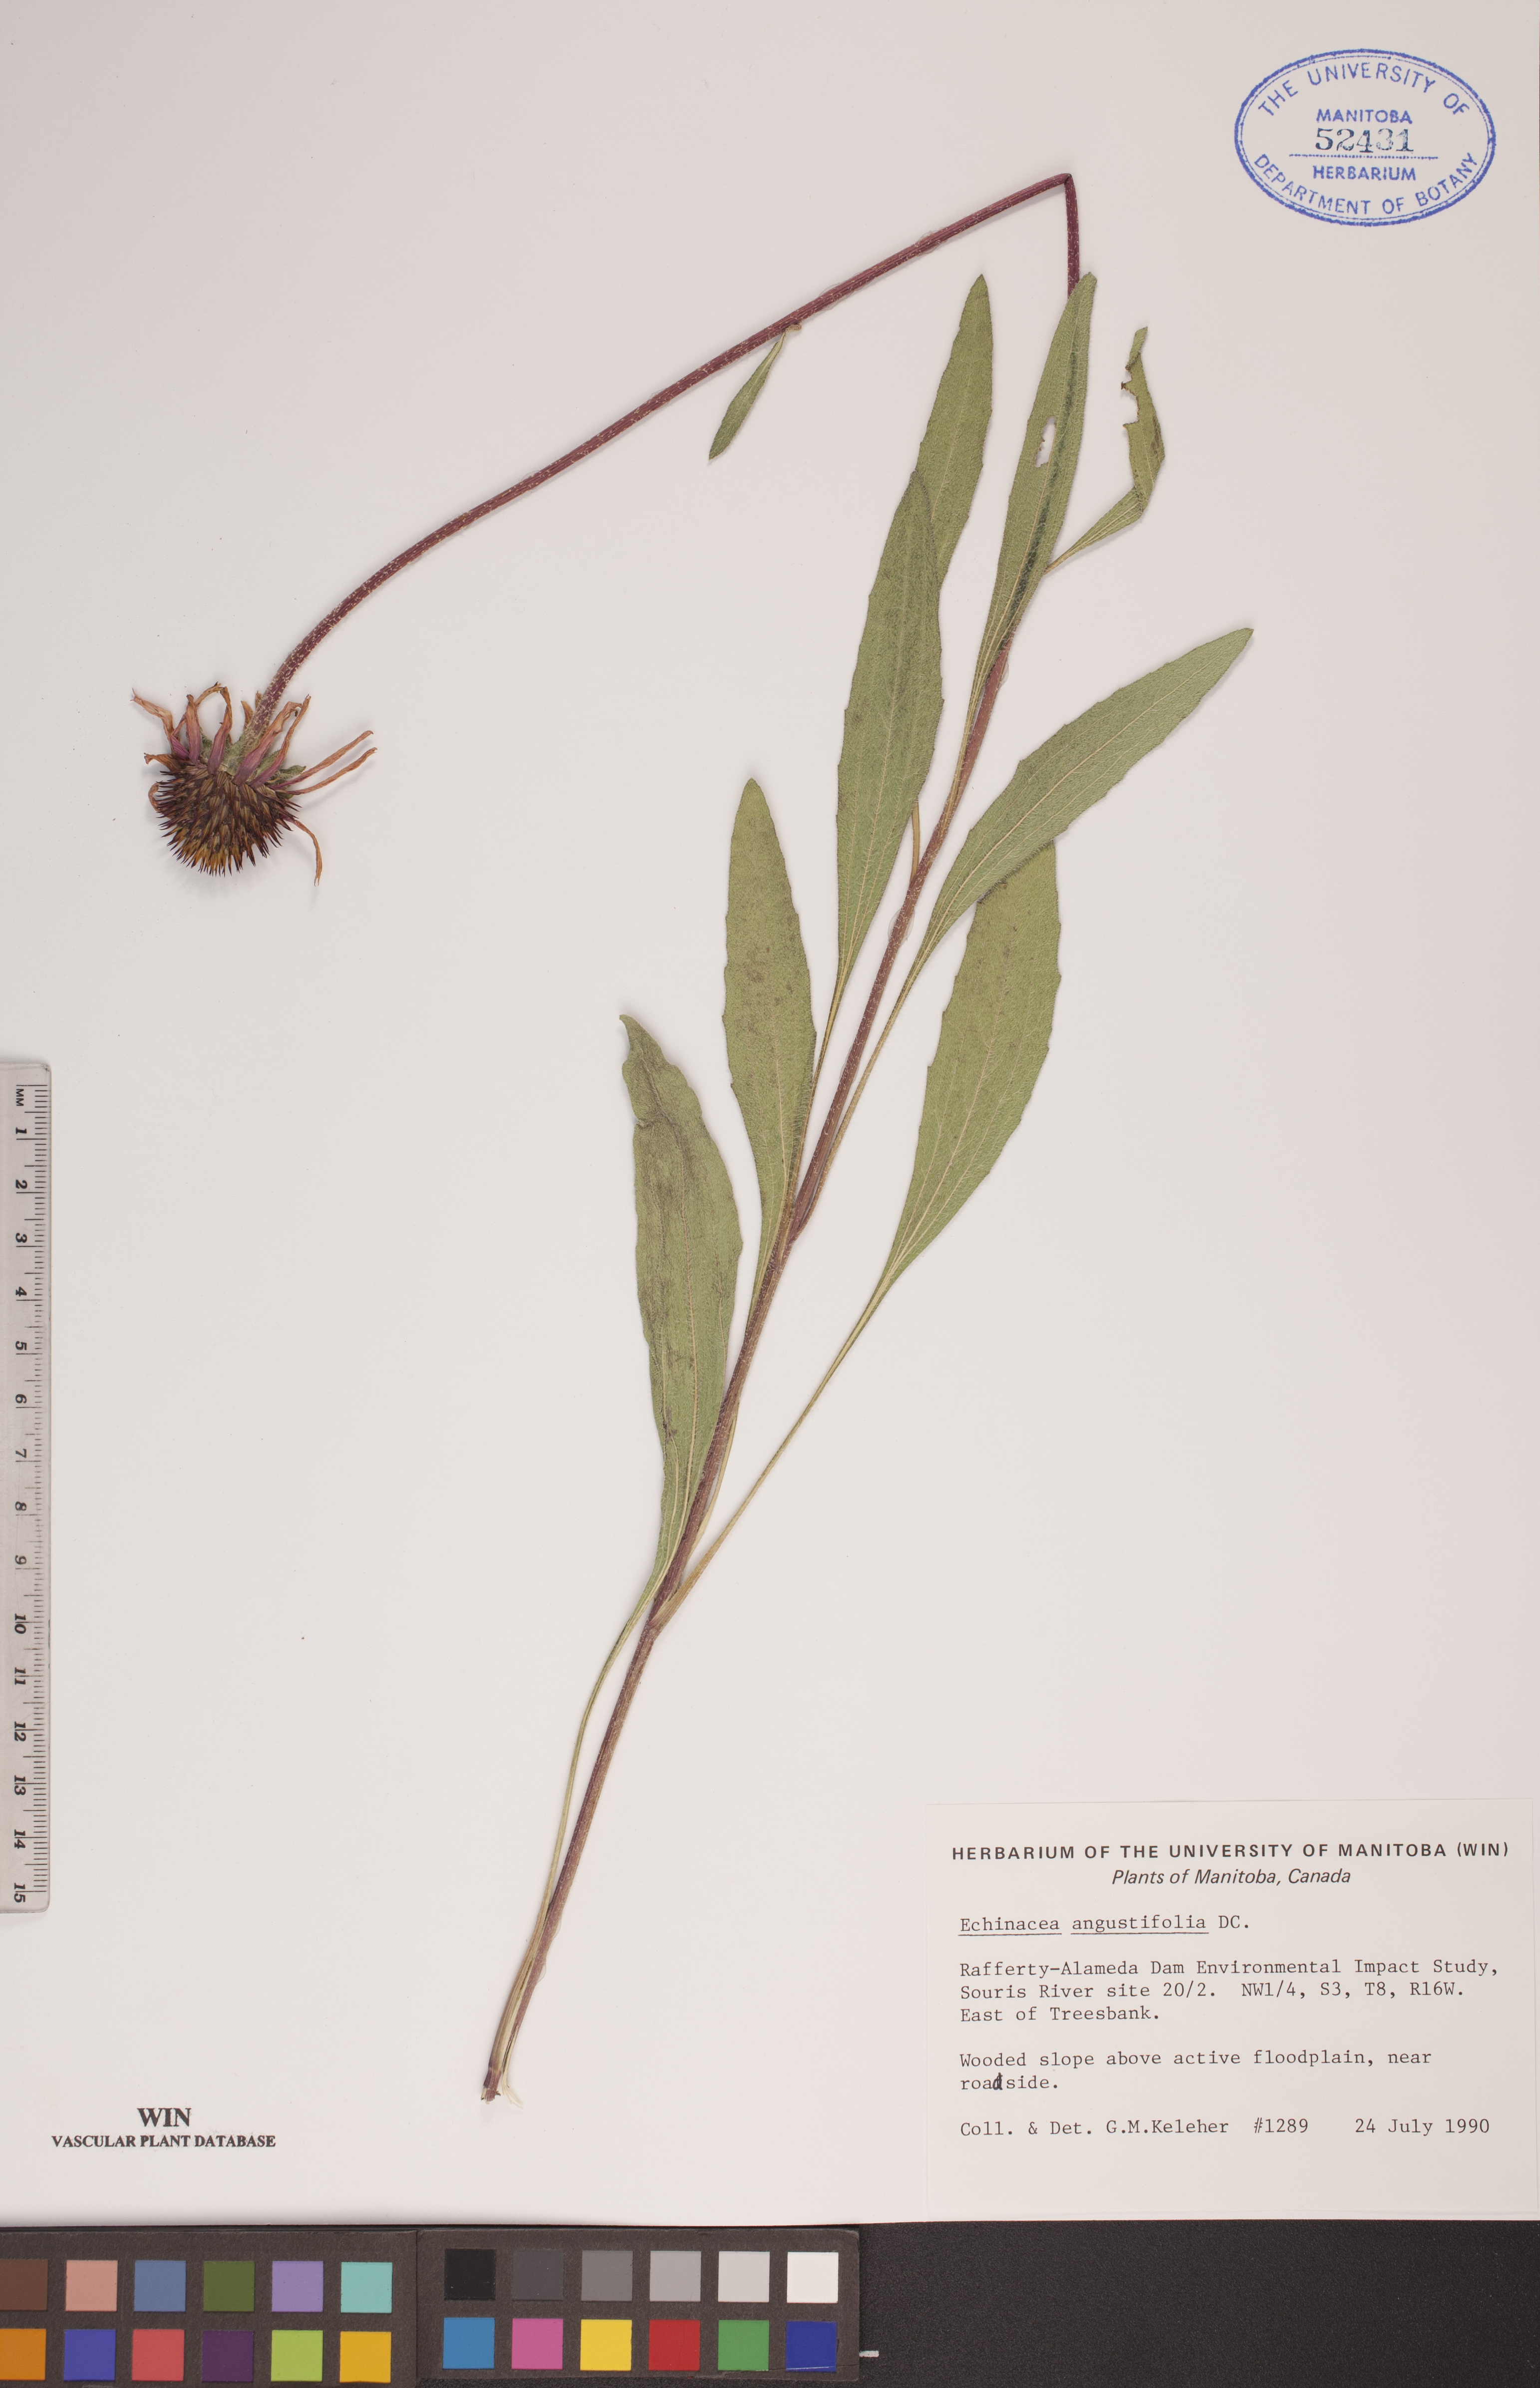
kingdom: Plantae
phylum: Tracheophyta
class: Magnoliopsida
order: Asterales
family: Asteraceae
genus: Echinacea
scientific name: Echinacea angustifolia
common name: Black-sampson echinacea
